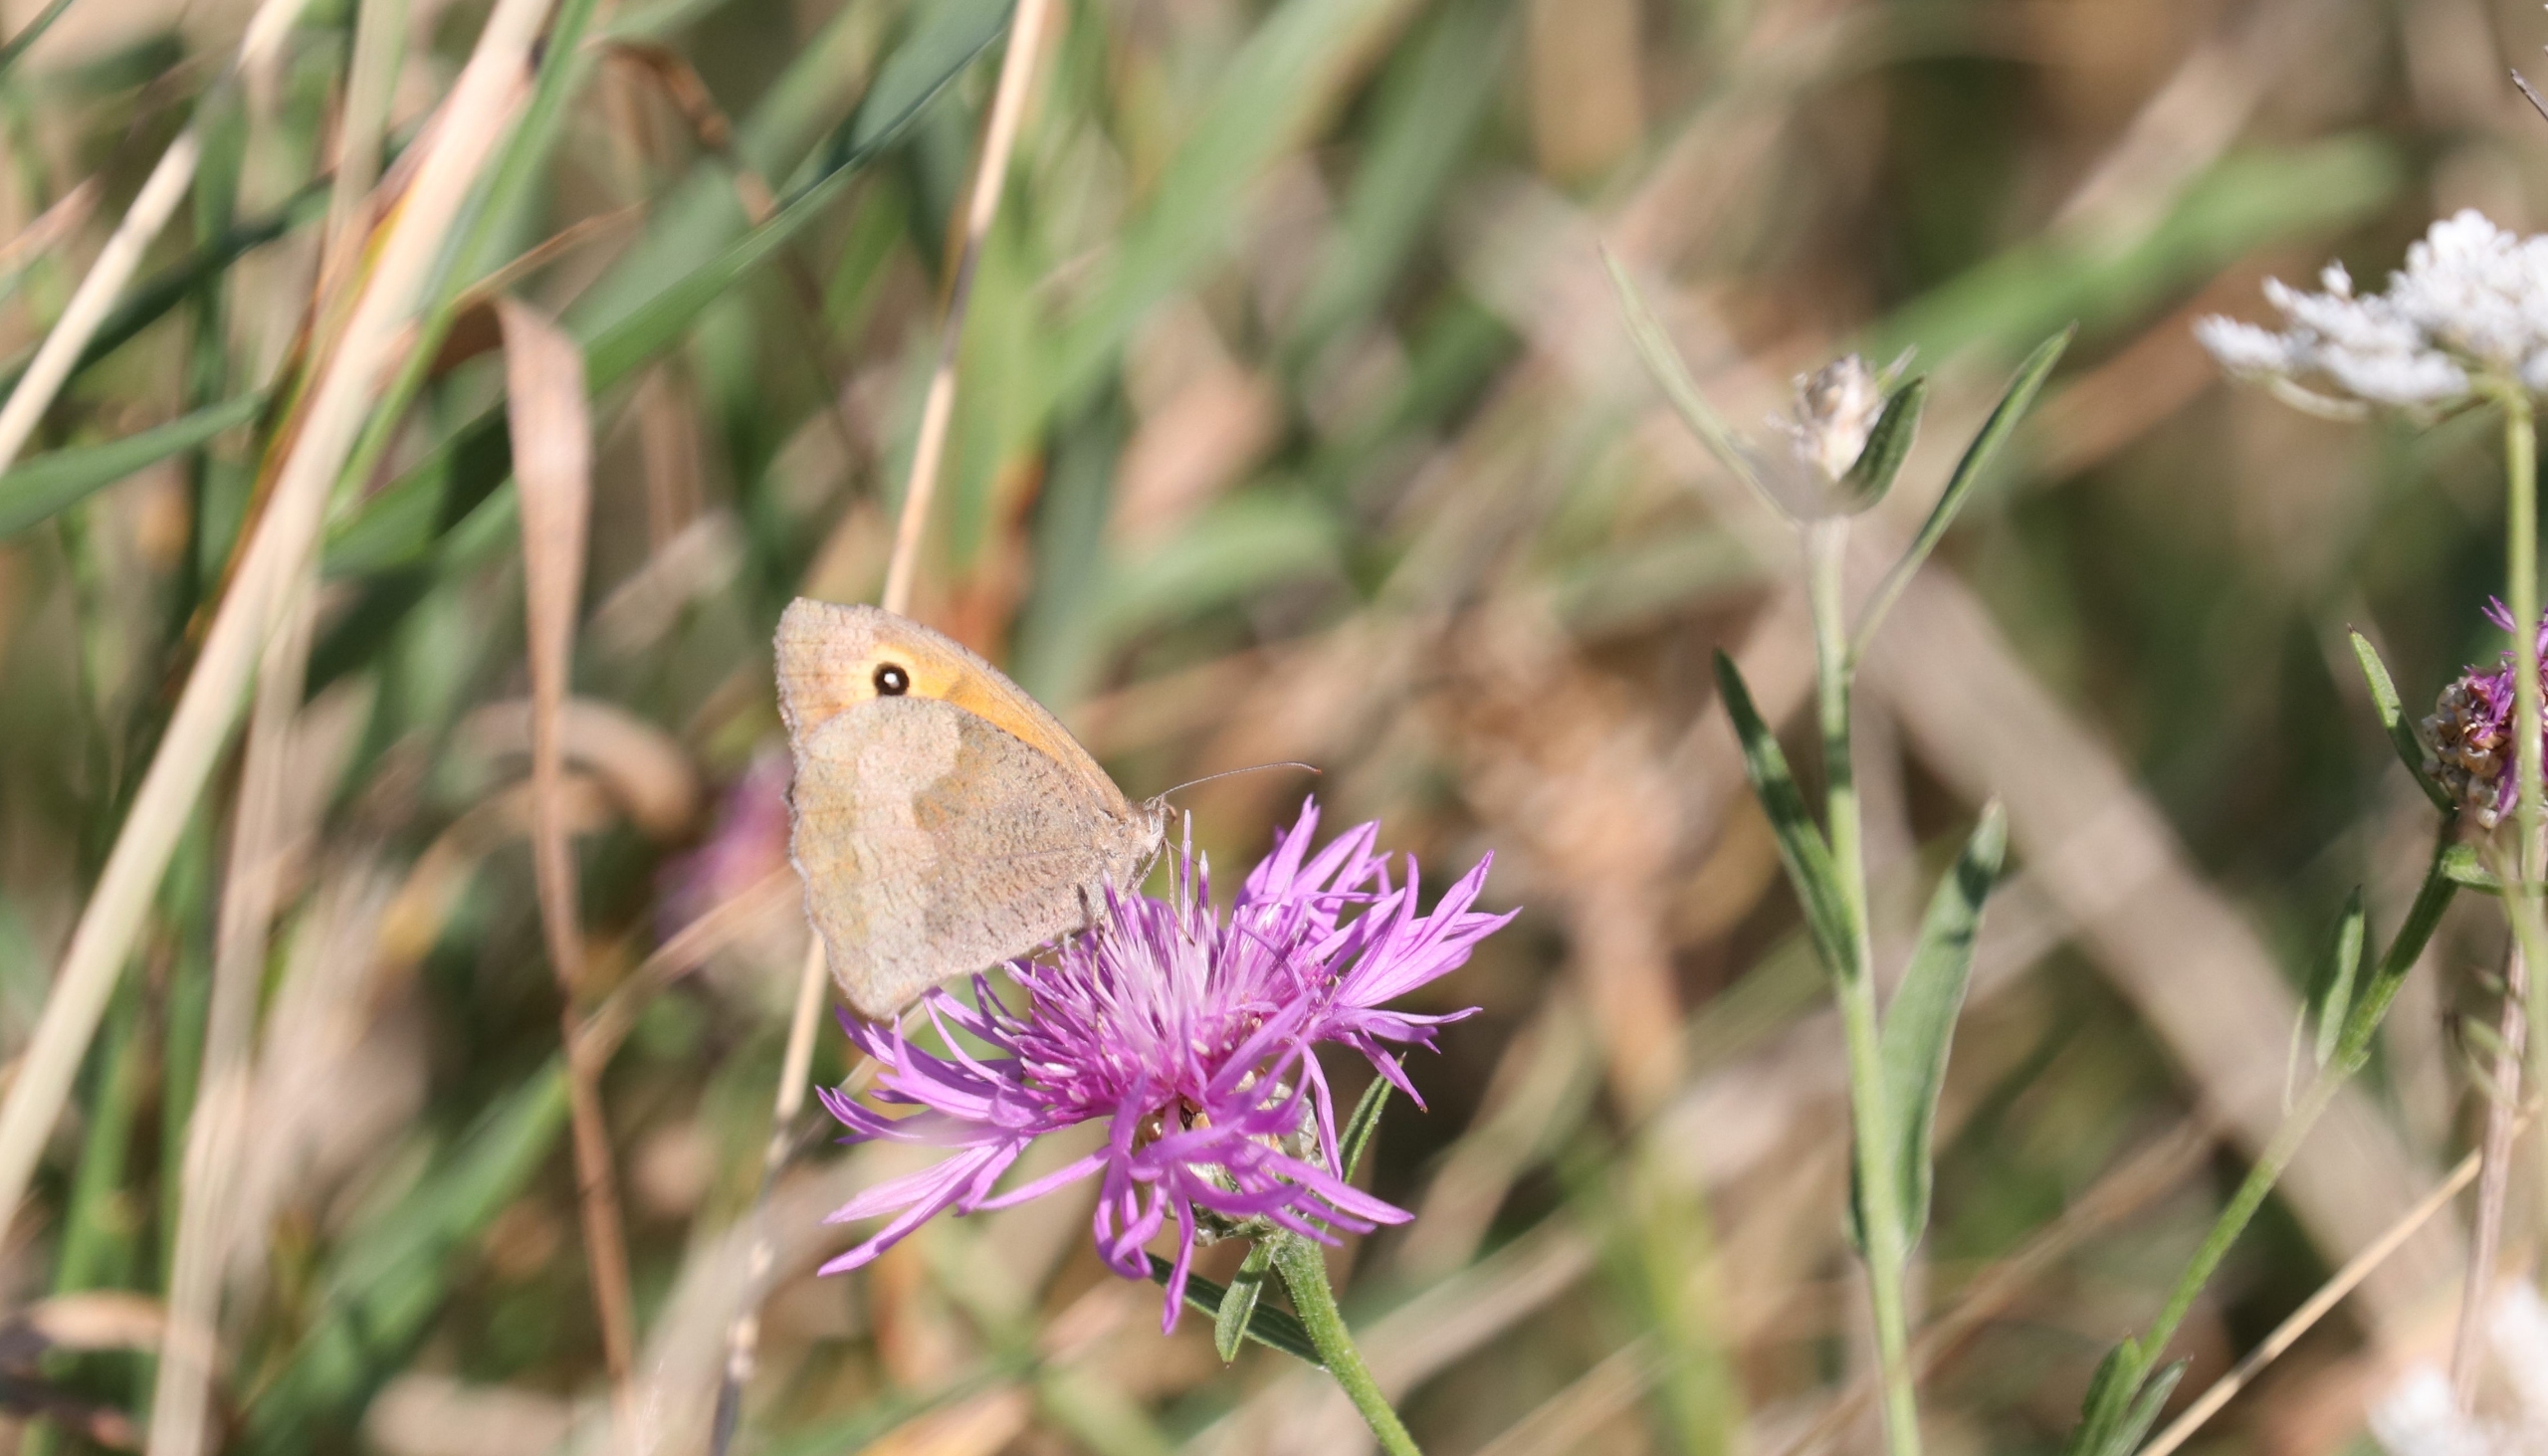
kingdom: Animalia
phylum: Arthropoda
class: Insecta
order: Lepidoptera
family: Nymphalidae
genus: Maniola
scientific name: Maniola jurtina
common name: Græsrandøje
